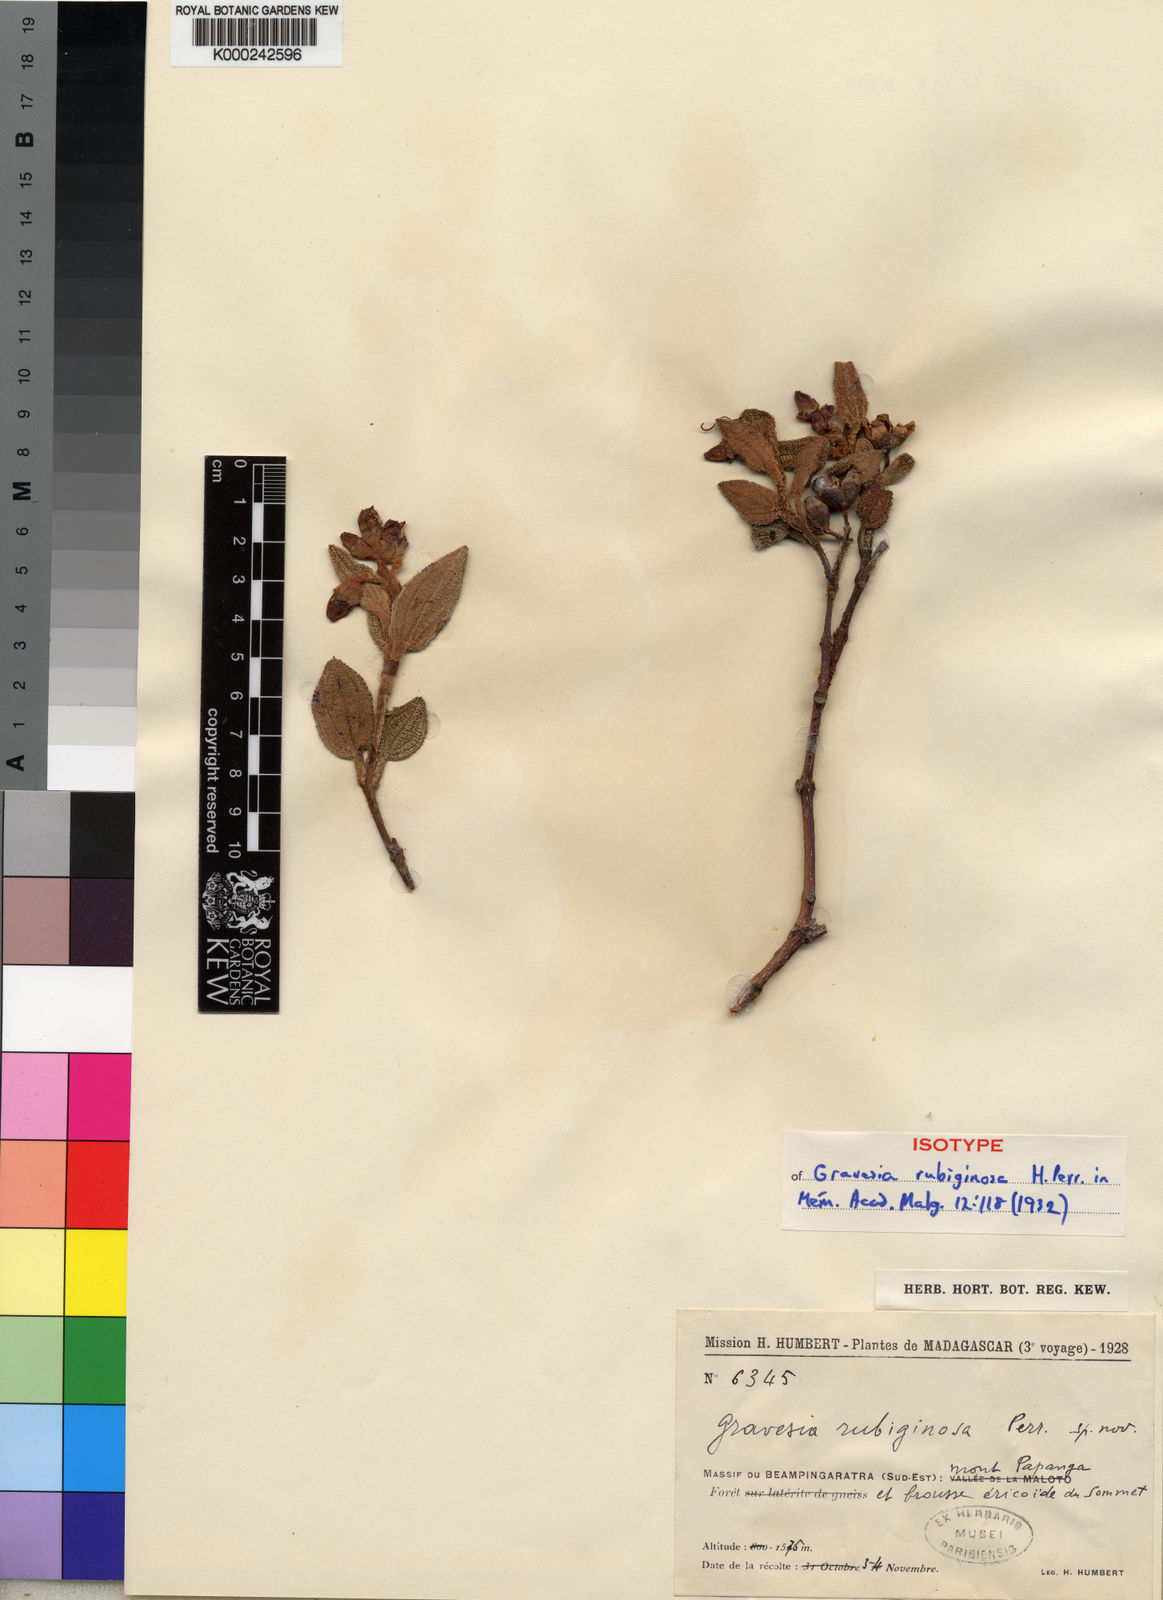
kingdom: Plantae
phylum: Tracheophyta
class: Magnoliopsida
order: Myrtales
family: Melastomataceae
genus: Gravesia
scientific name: Gravesia rubiginosa
